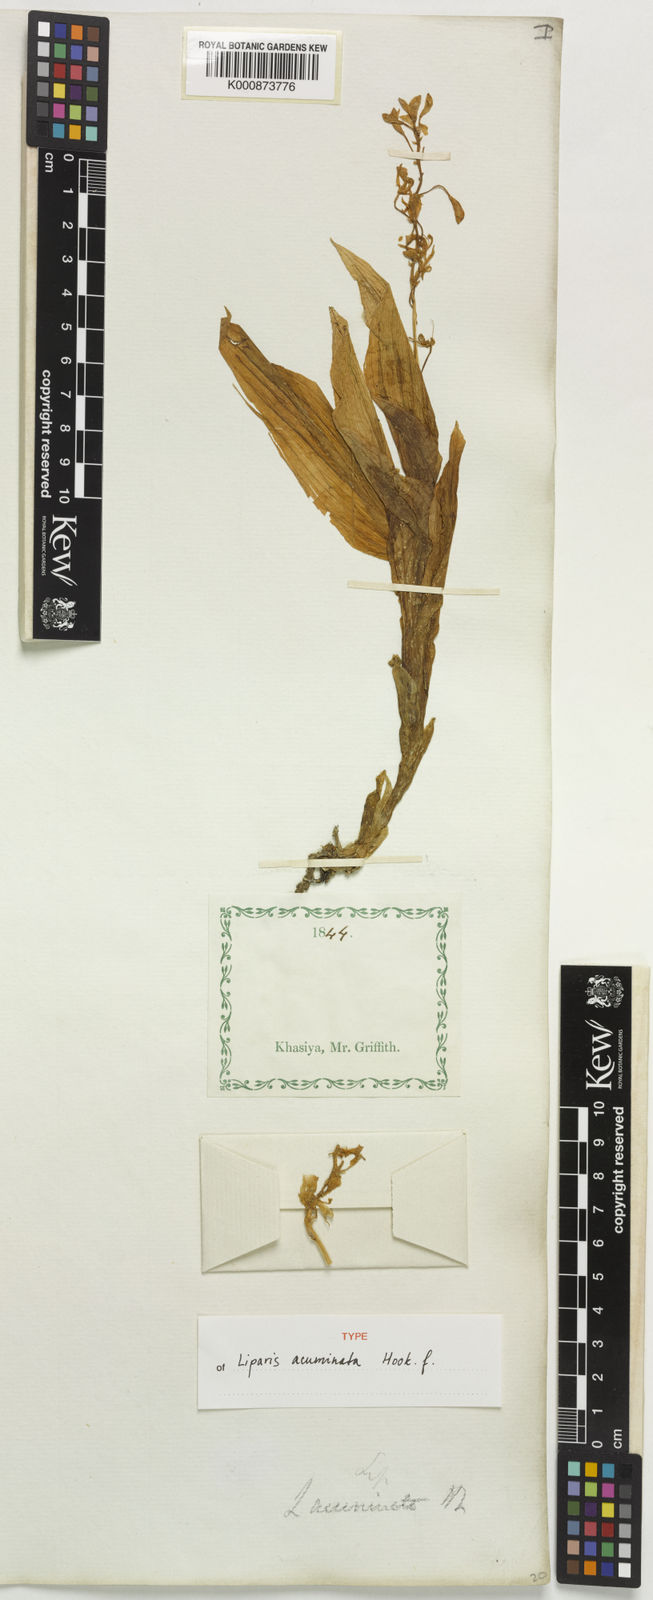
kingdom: Plantae
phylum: Tracheophyta
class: Liliopsida
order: Asparagales
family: Orchidaceae
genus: Liparis
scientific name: Liparis acuminata
